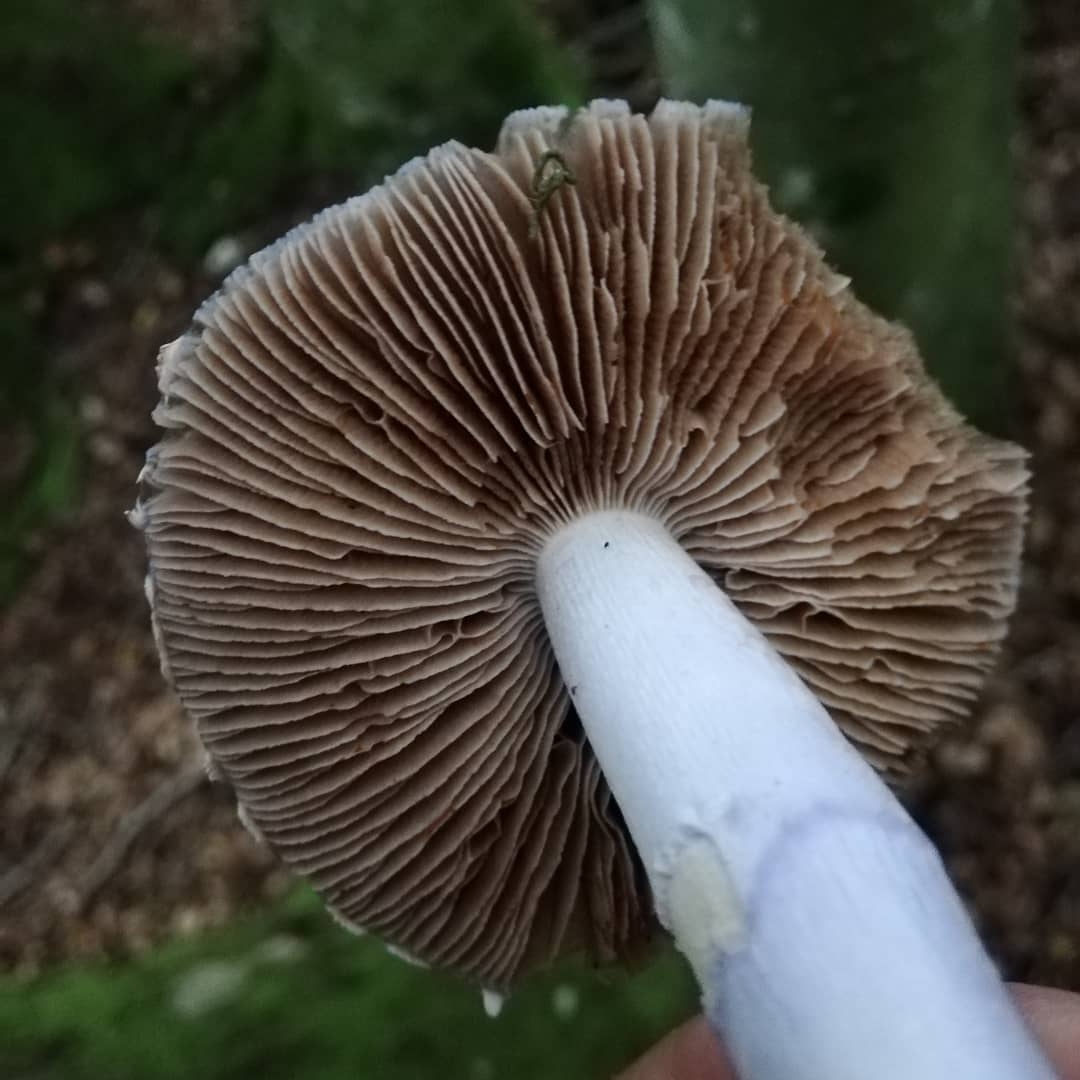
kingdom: Fungi
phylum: Basidiomycota
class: Agaricomycetes
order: Agaricales
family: Cortinariaceae
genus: Cortinarius
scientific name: Cortinarius elatior
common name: høj slørhat
